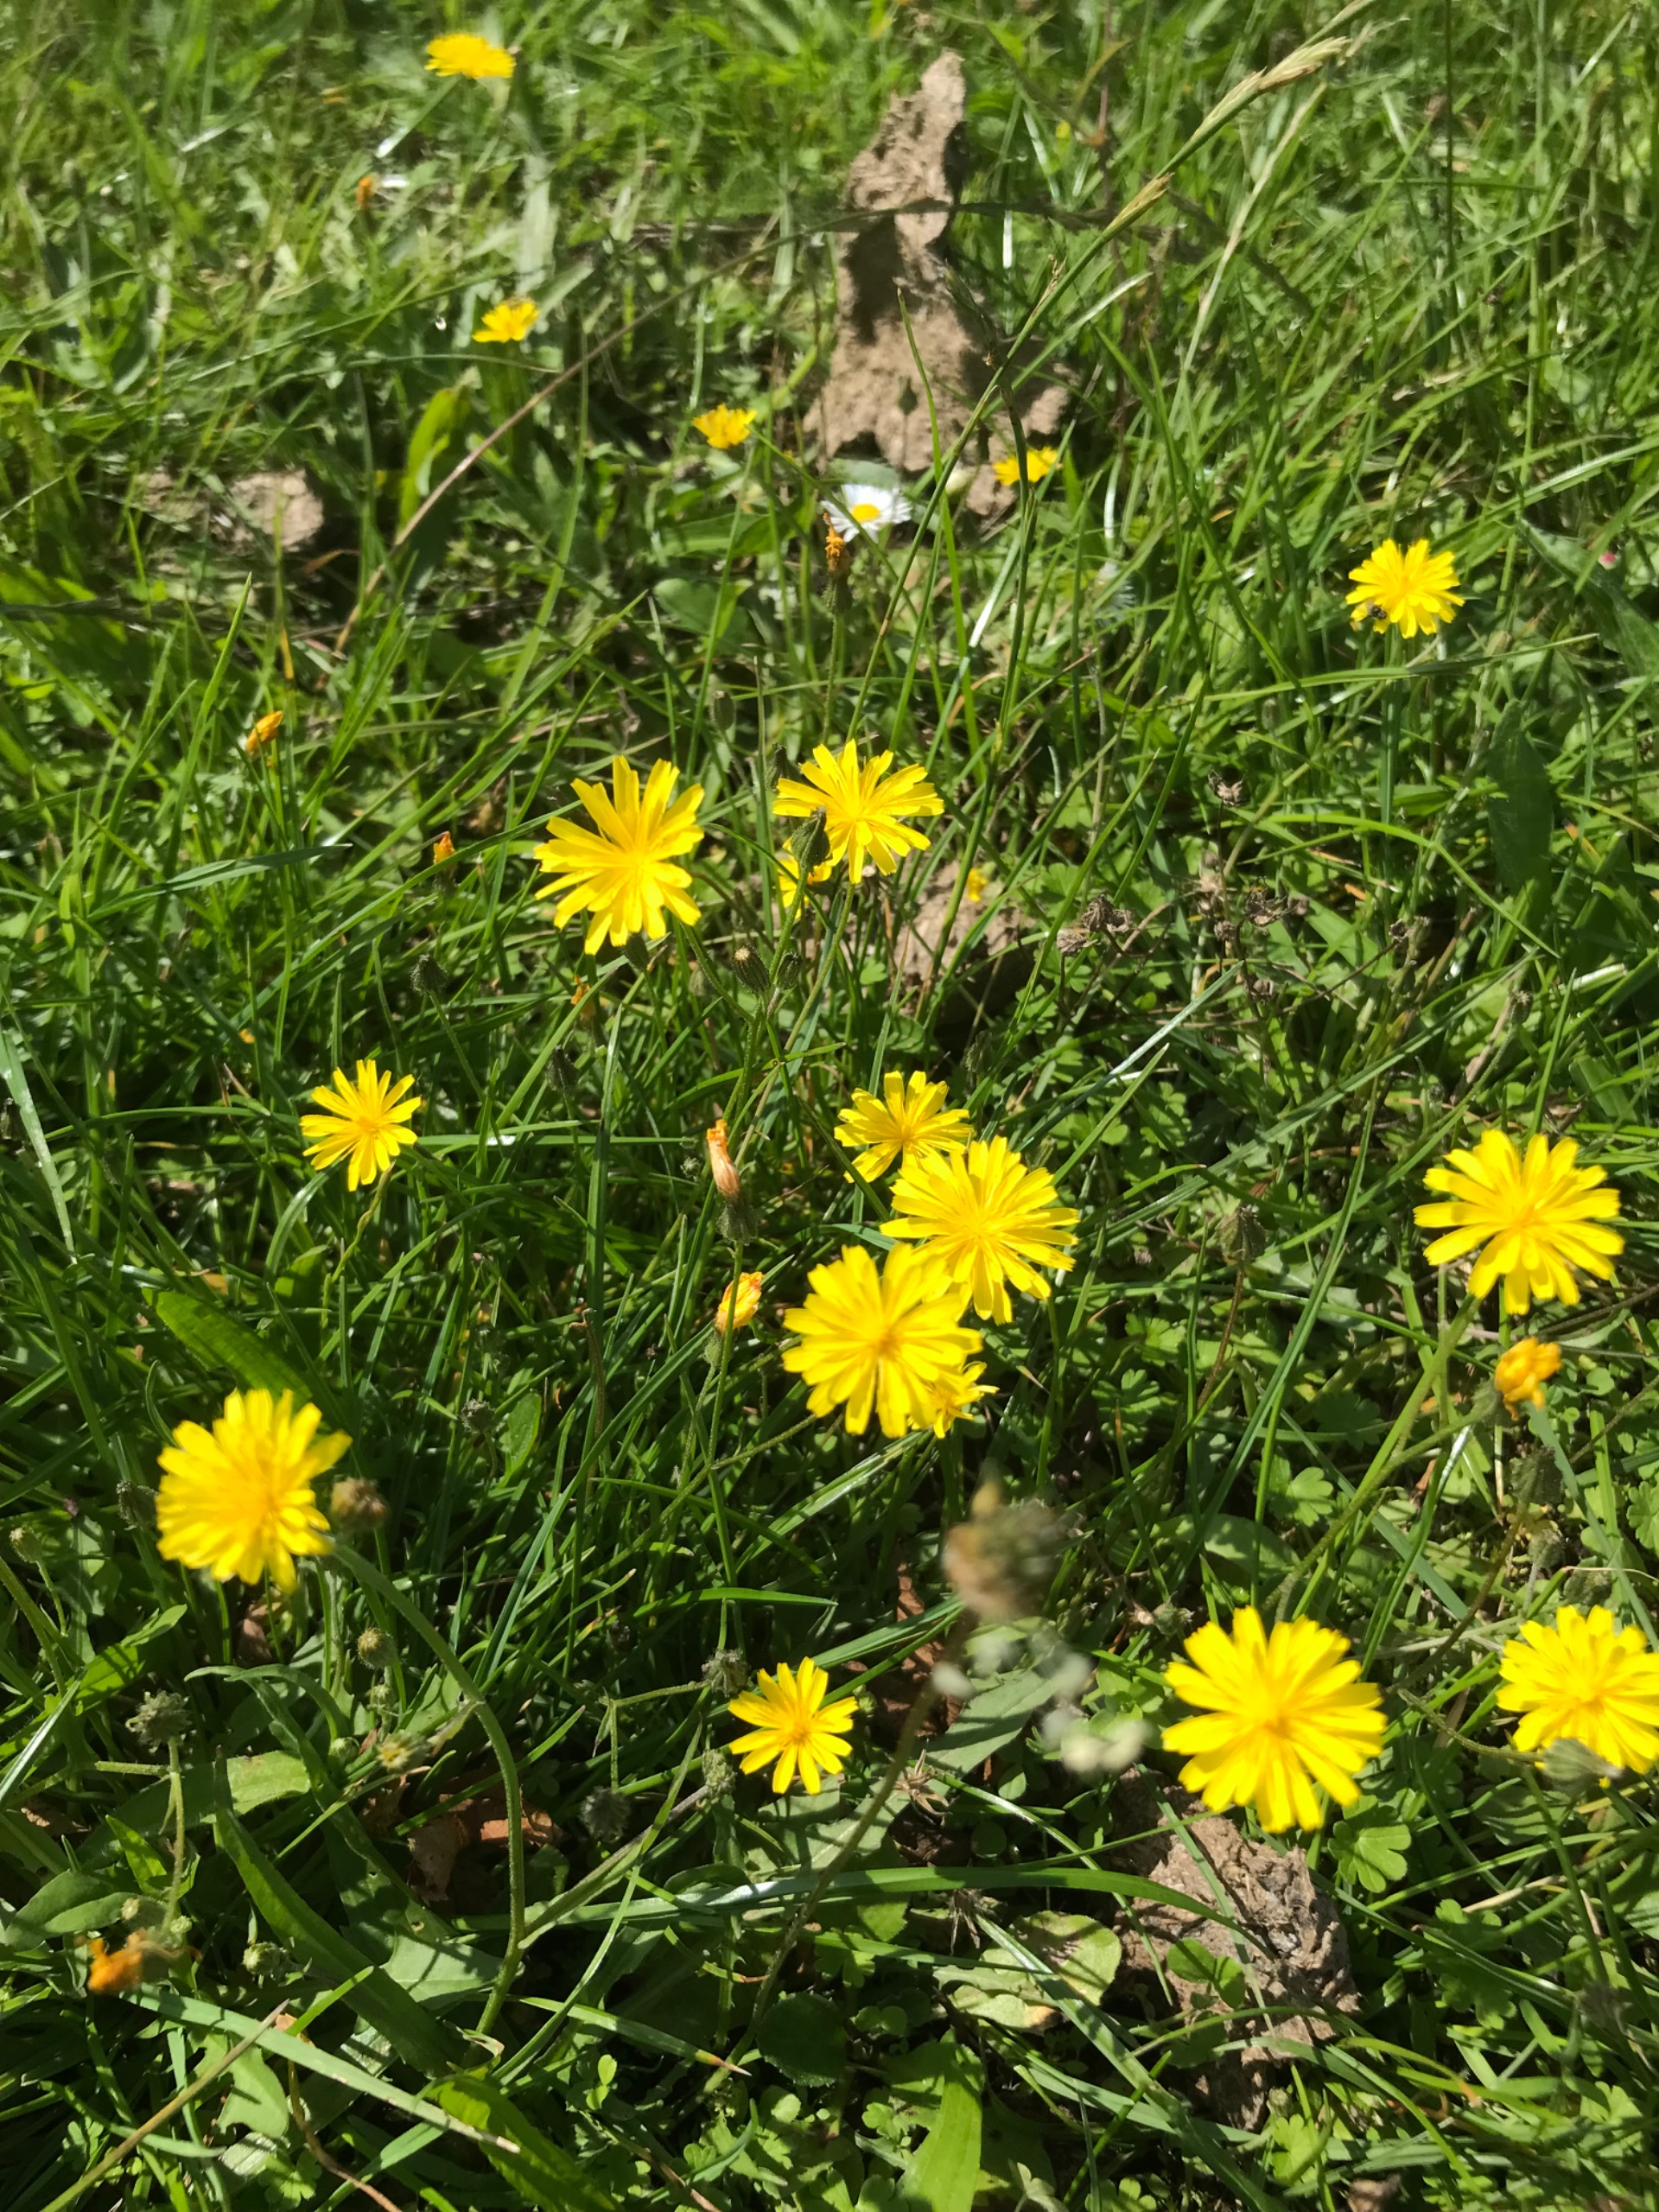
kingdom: Plantae
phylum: Tracheophyta
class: Magnoliopsida
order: Asterales
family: Asteraceae
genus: Crepis
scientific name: Crepis capillaris
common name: Grøn høgeskæg
